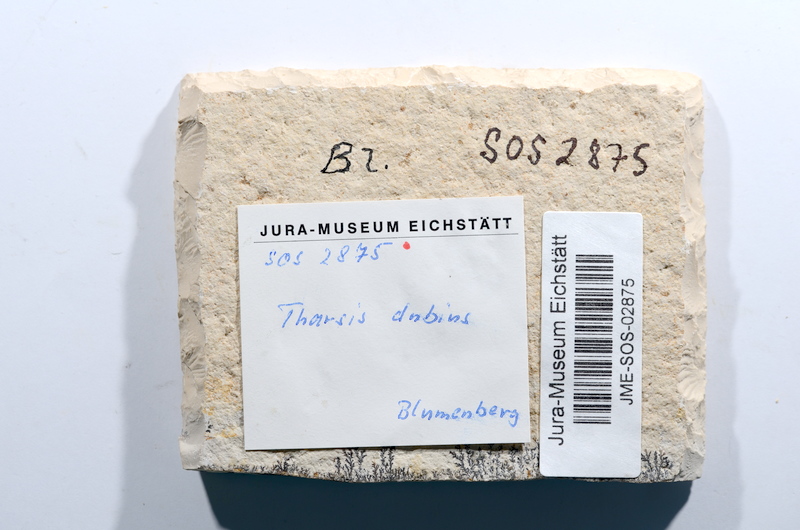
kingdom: Animalia
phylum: Chordata
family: Ascalaboidae
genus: Tharsis
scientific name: Tharsis dubius
